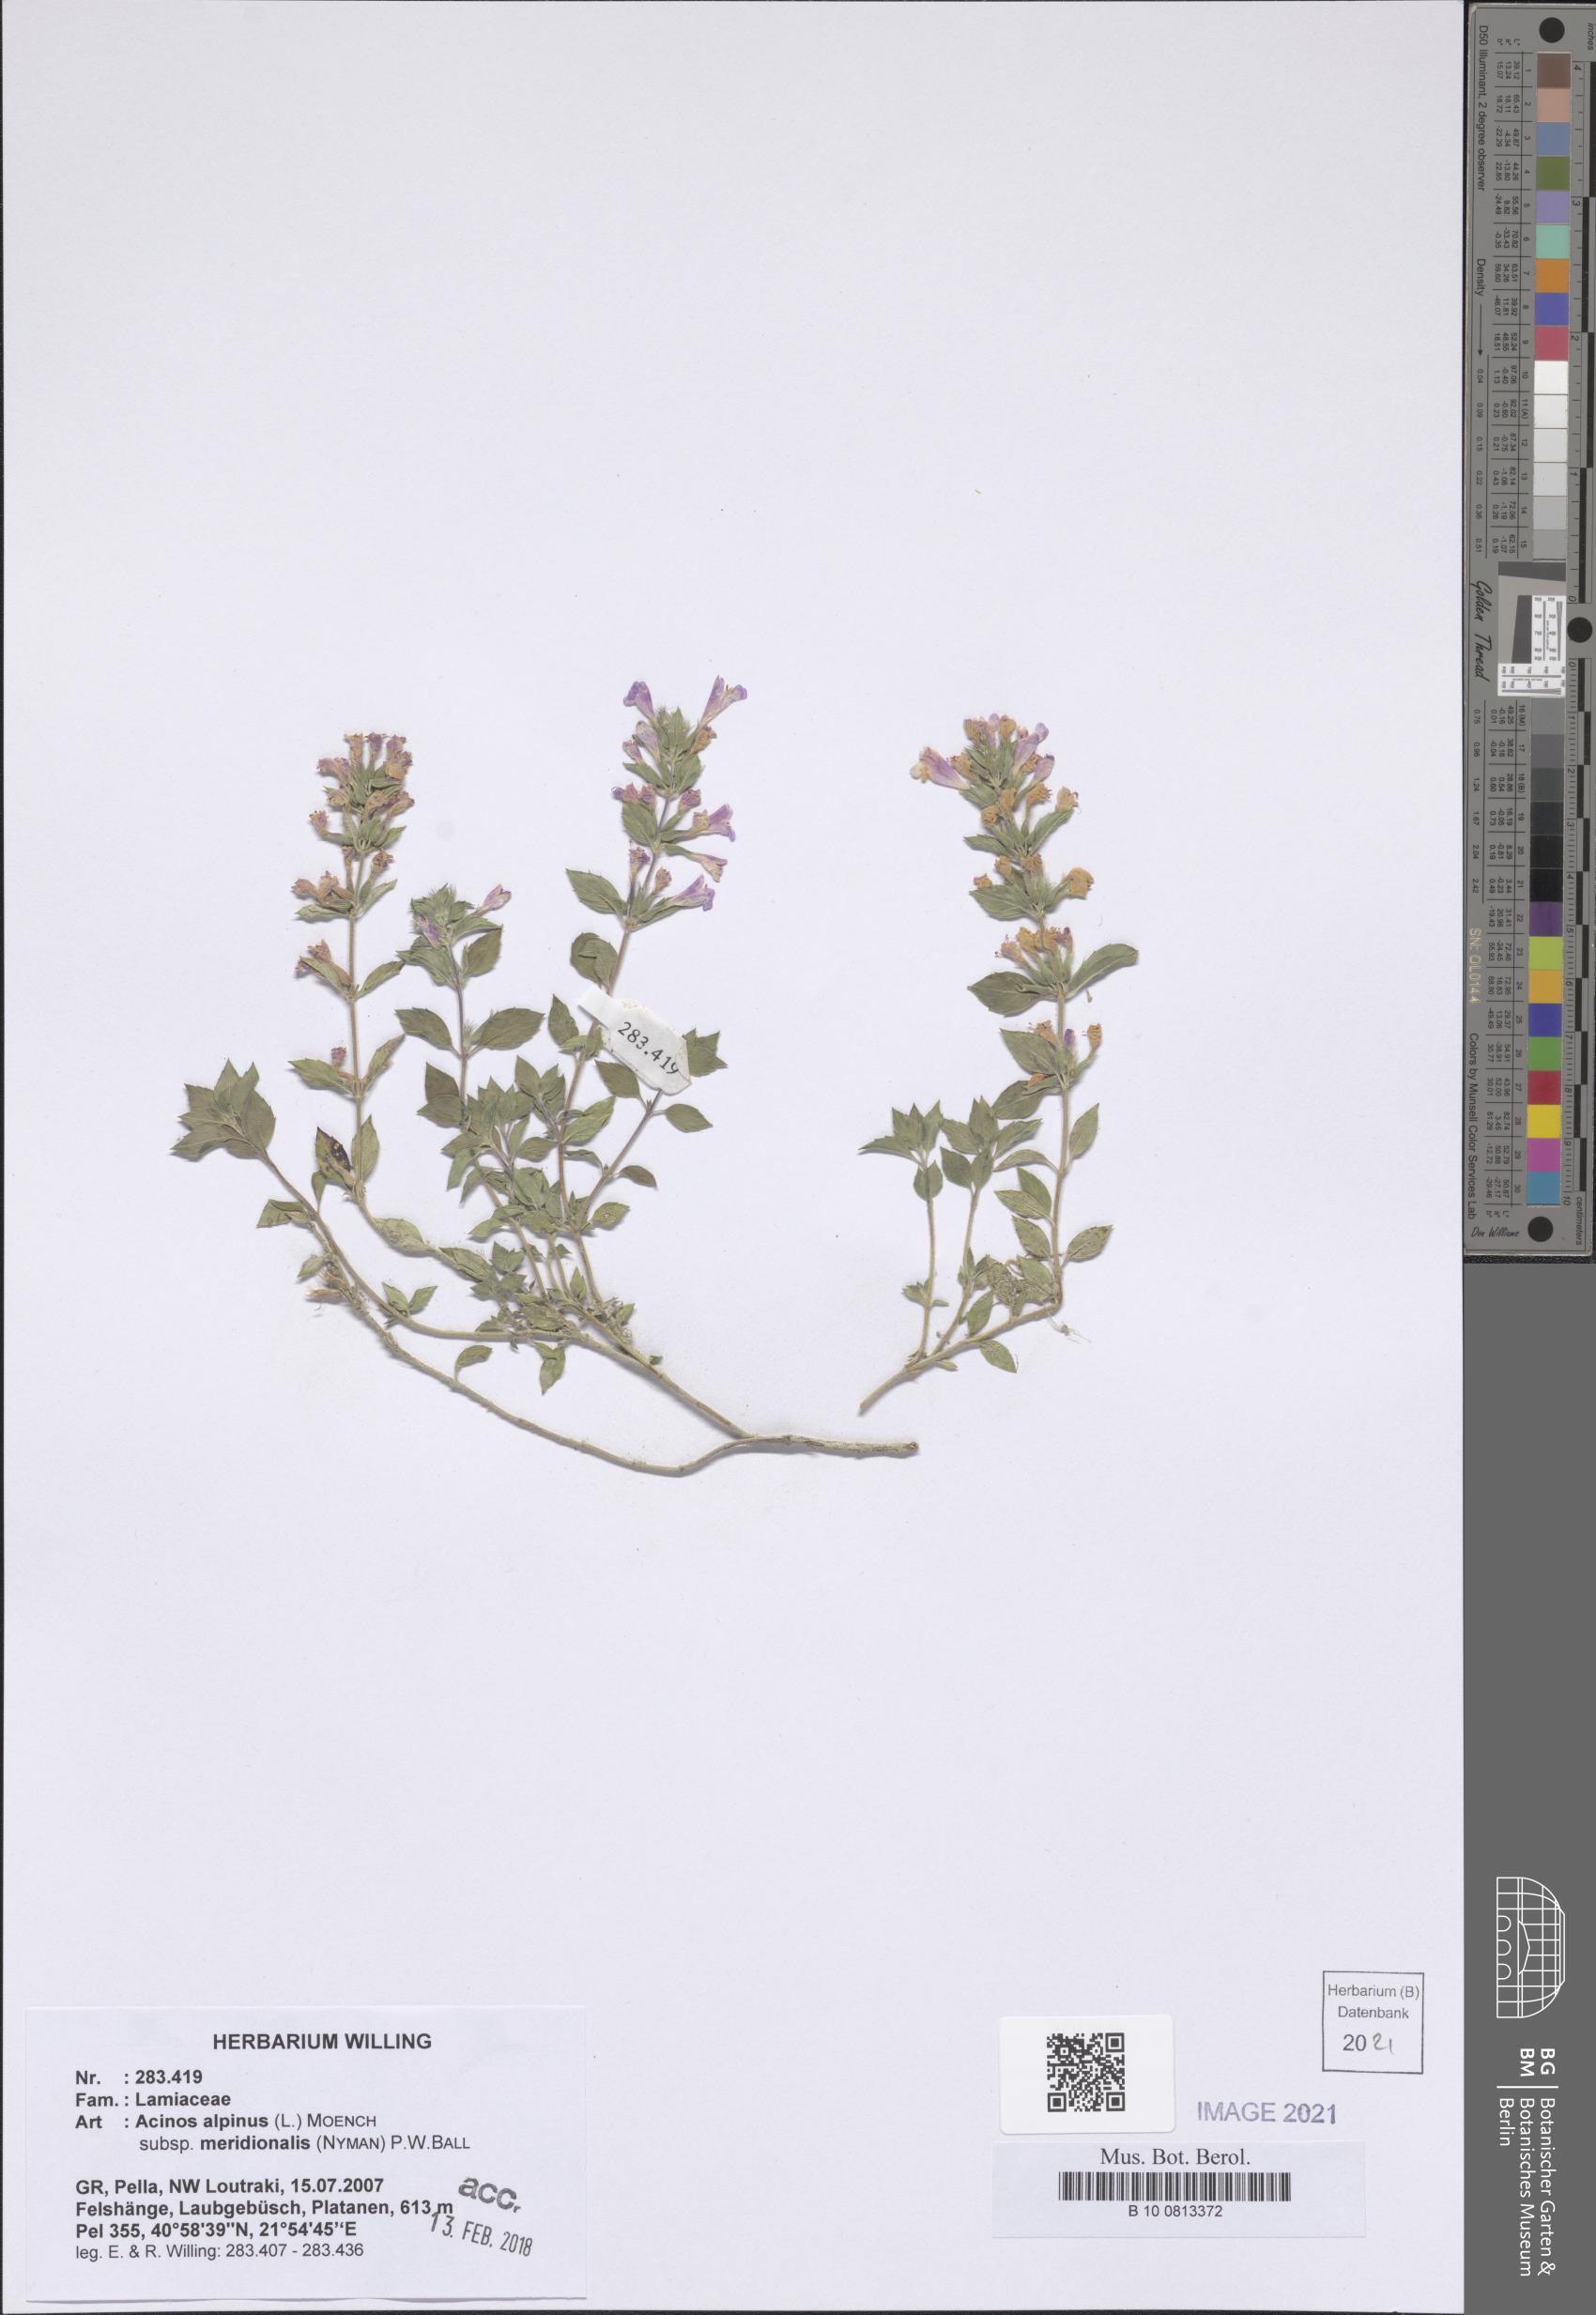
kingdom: Plantae
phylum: Tracheophyta
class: Magnoliopsida
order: Lamiales
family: Lamiaceae
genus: Clinopodium
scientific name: Clinopodium alpinum
